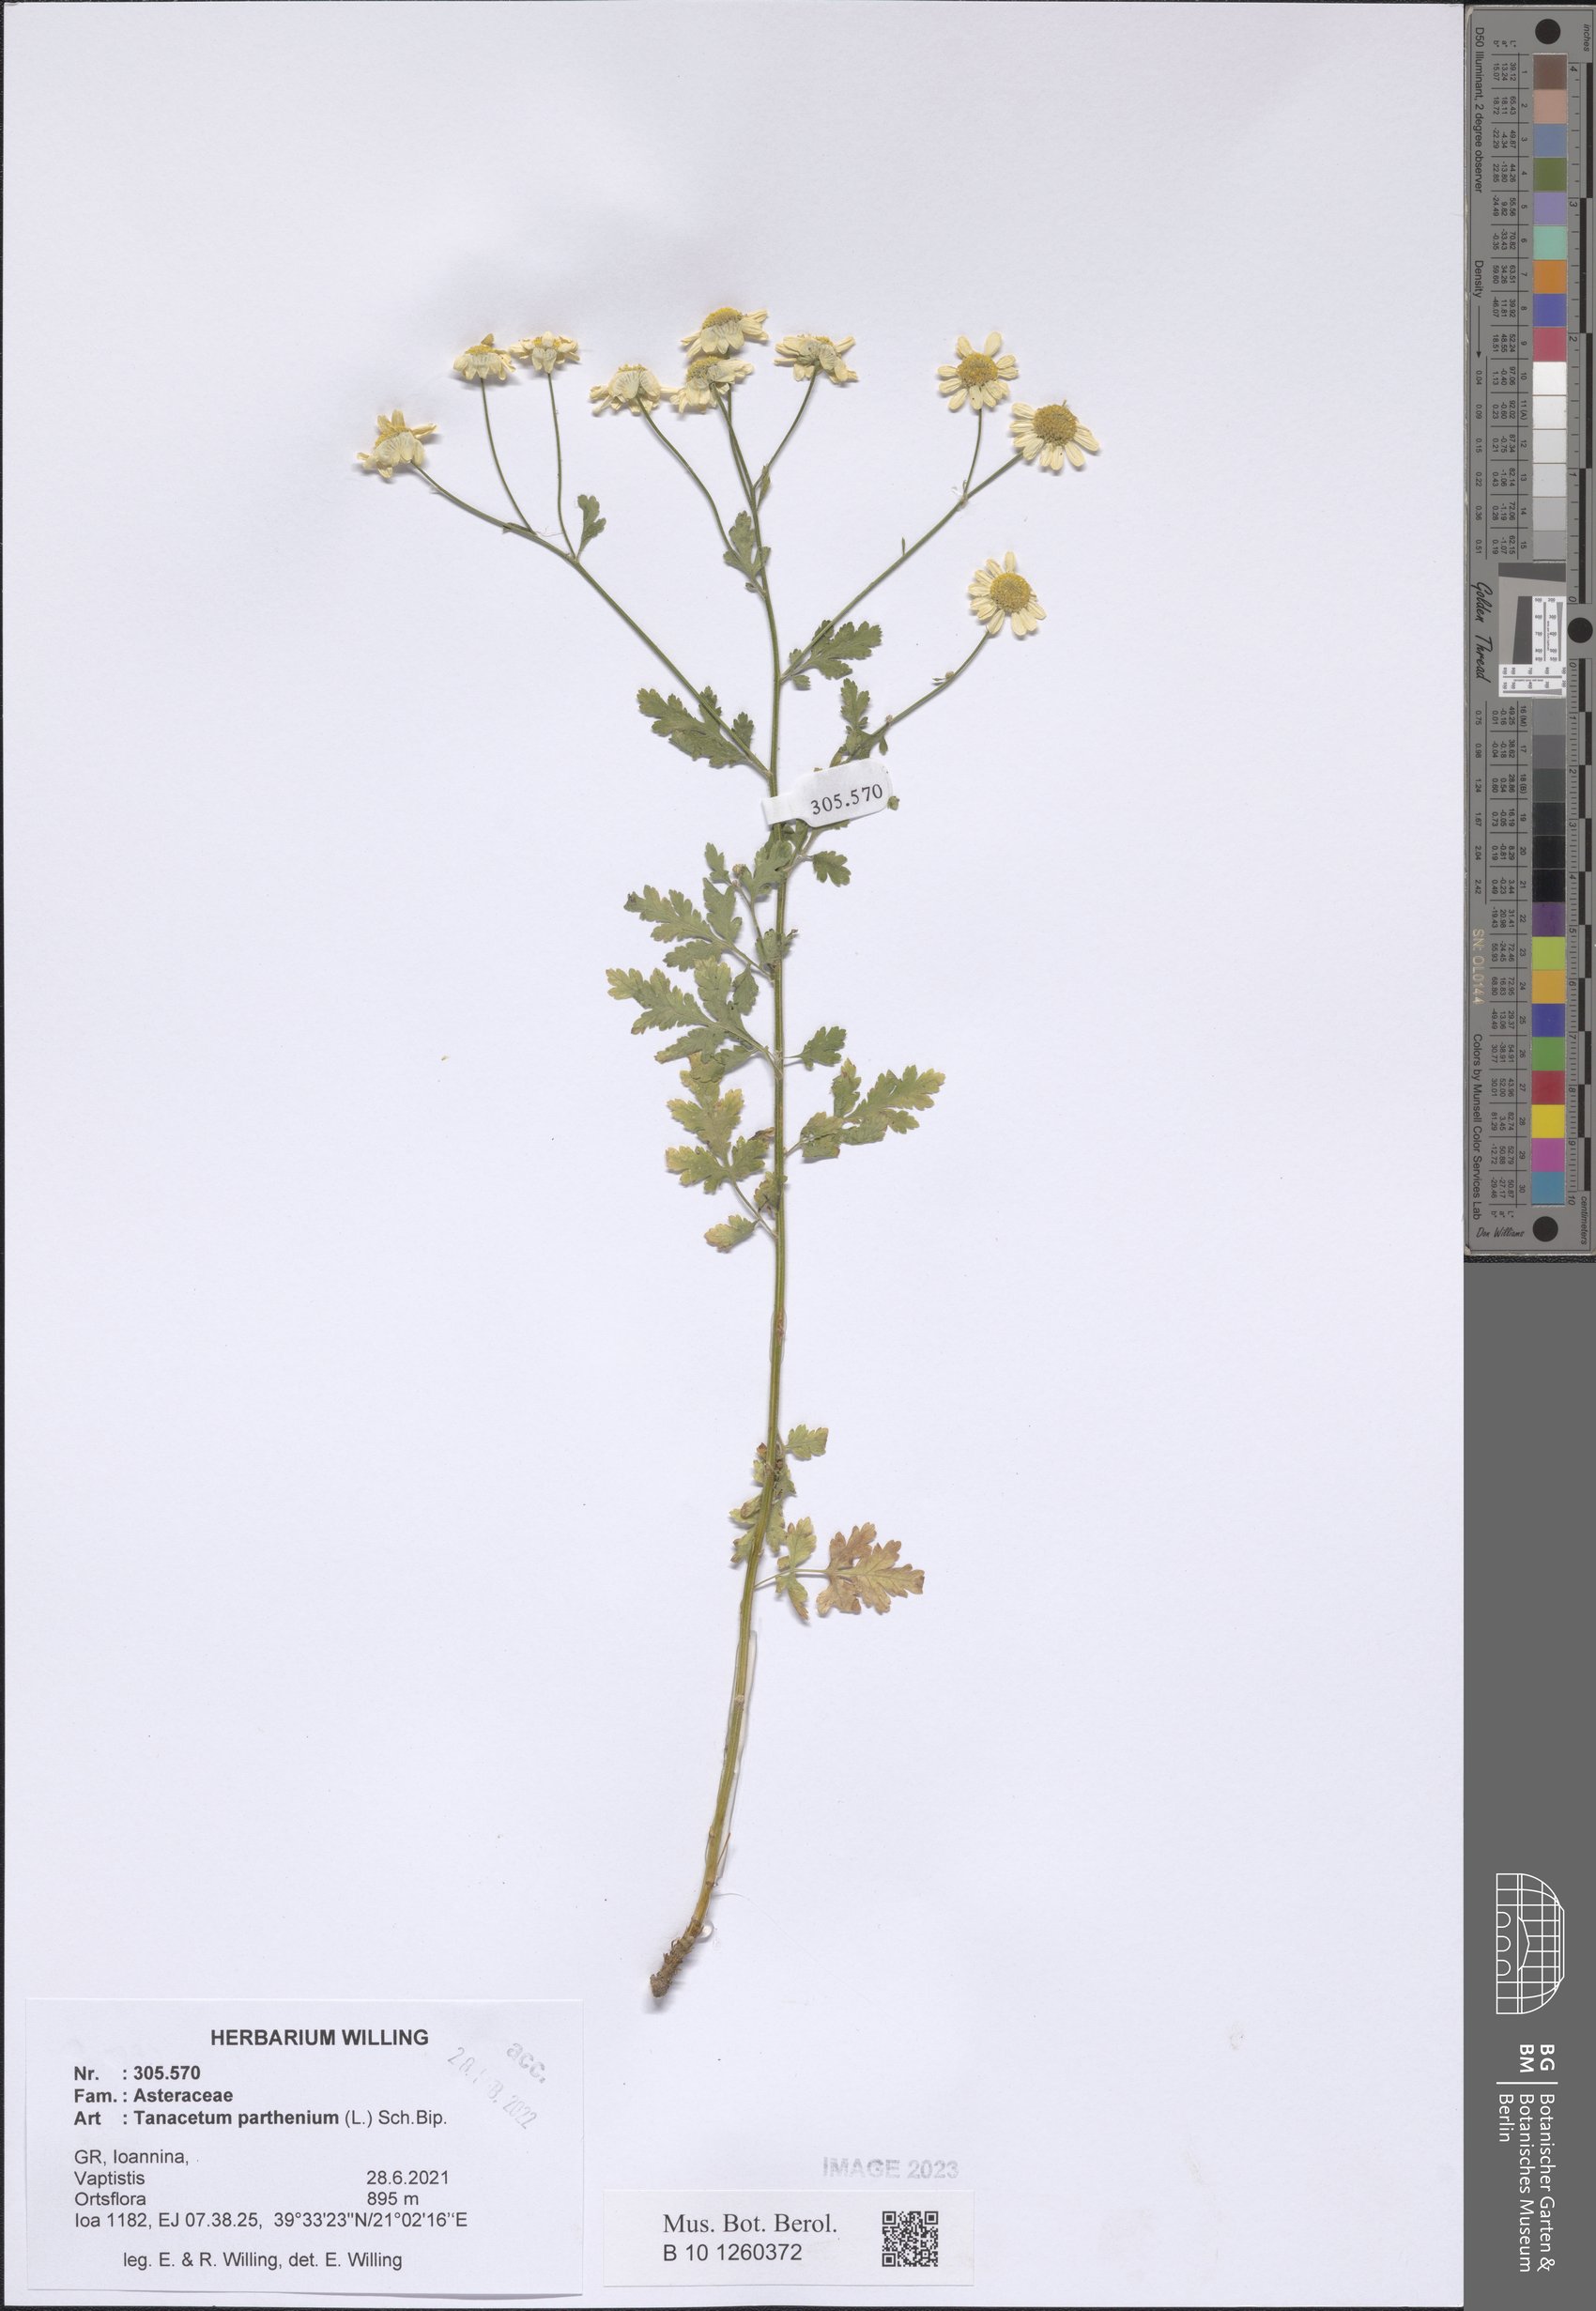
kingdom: Plantae
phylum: Tracheophyta
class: Magnoliopsida
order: Asterales
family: Asteraceae
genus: Tanacetum
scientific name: Tanacetum parthenium
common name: Feverfew
